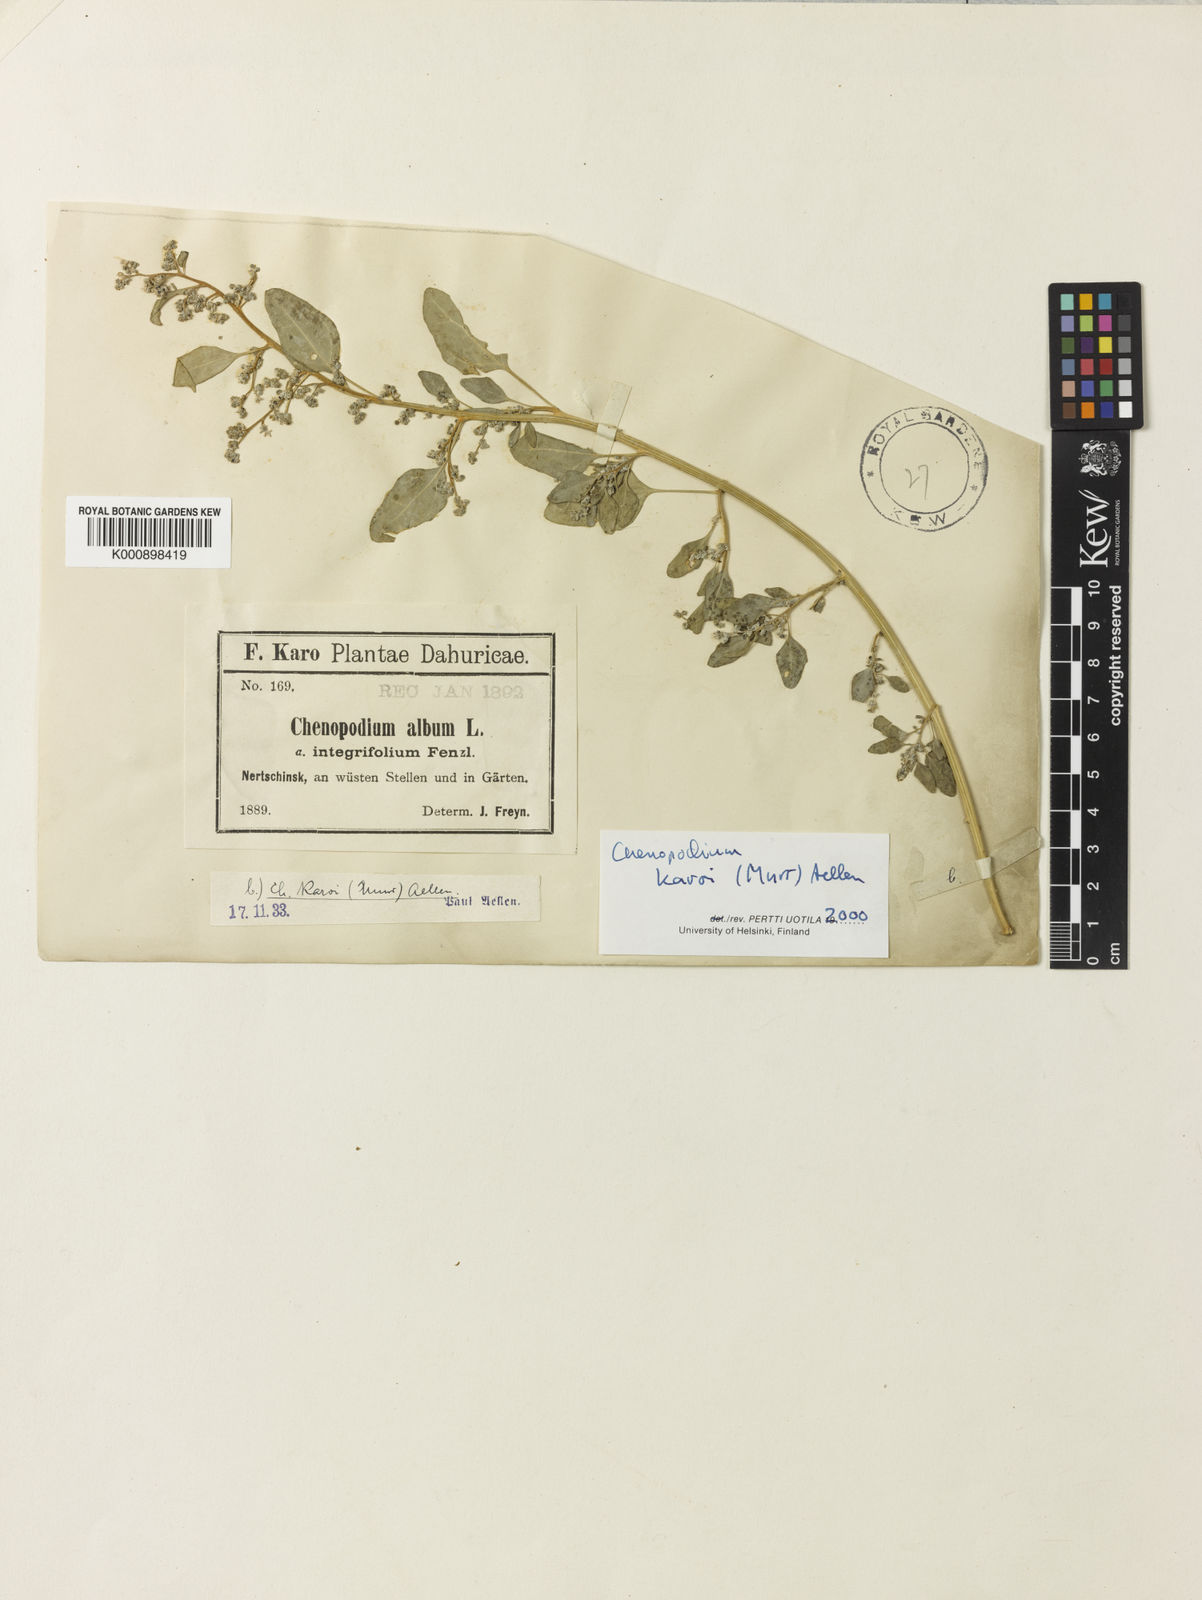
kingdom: Plantae
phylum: Tracheophyta
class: Magnoliopsida
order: Caryophyllales
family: Amaranthaceae
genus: Chenopodium
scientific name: Chenopodium karoi
